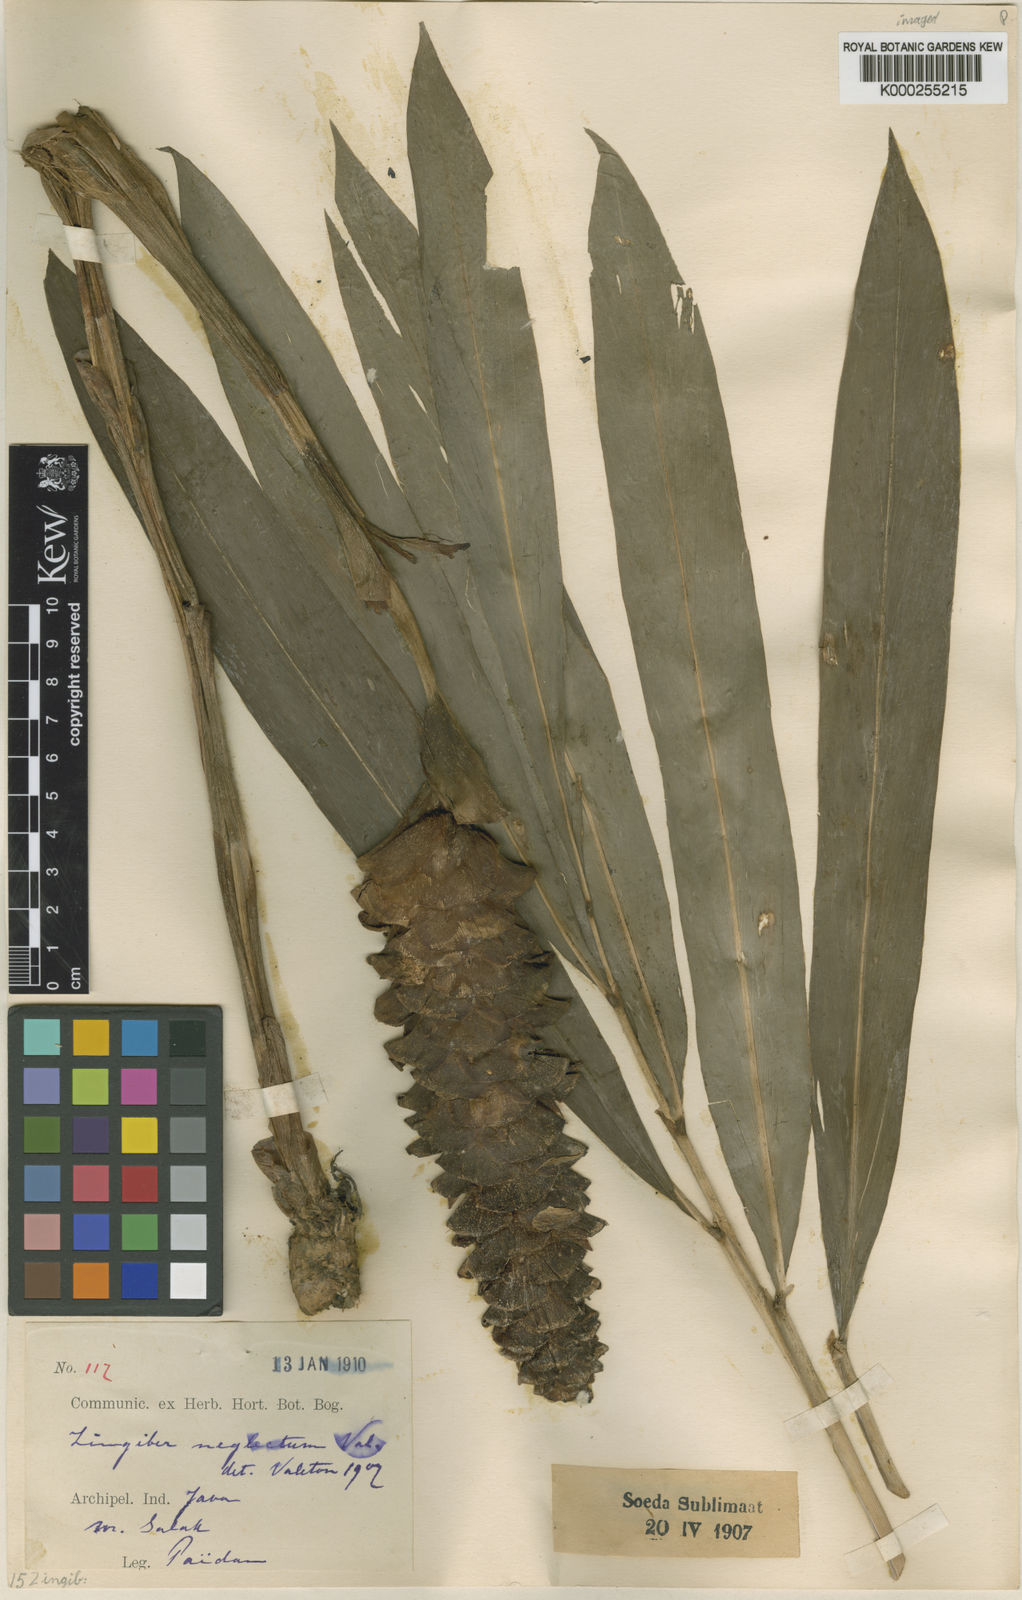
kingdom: Plantae
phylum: Tracheophyta
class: Liliopsida
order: Zingiberales
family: Zingiberaceae
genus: Zingiber
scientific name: Zingiber neglectum
